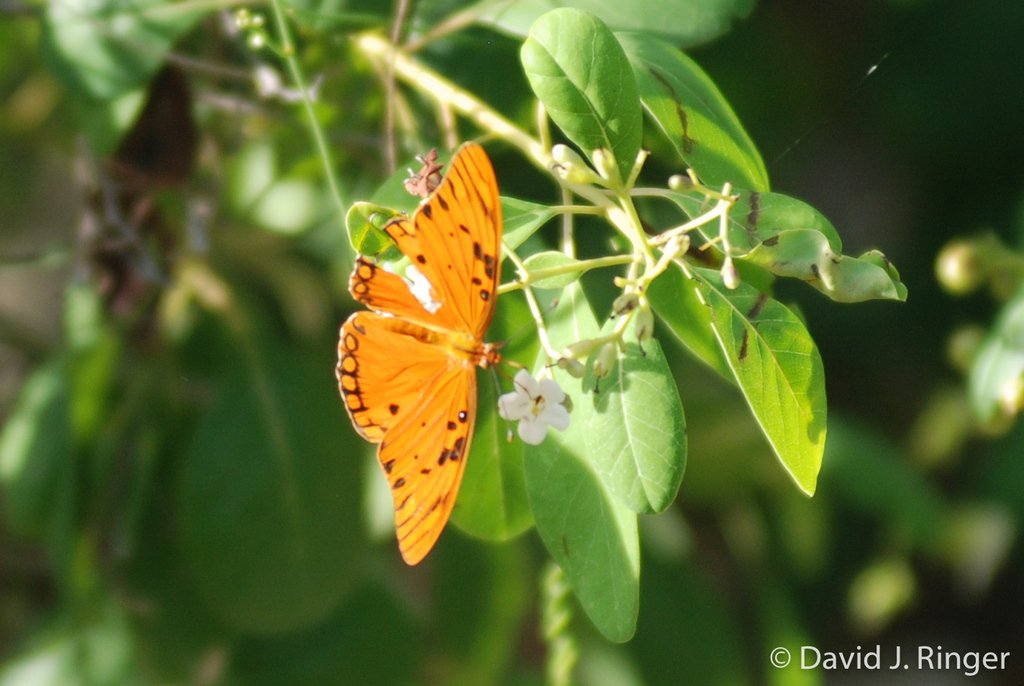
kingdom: Animalia
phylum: Arthropoda
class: Insecta
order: Lepidoptera
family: Nymphalidae
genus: Dione
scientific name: Dione vanillae
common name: Gulf Fritillary
